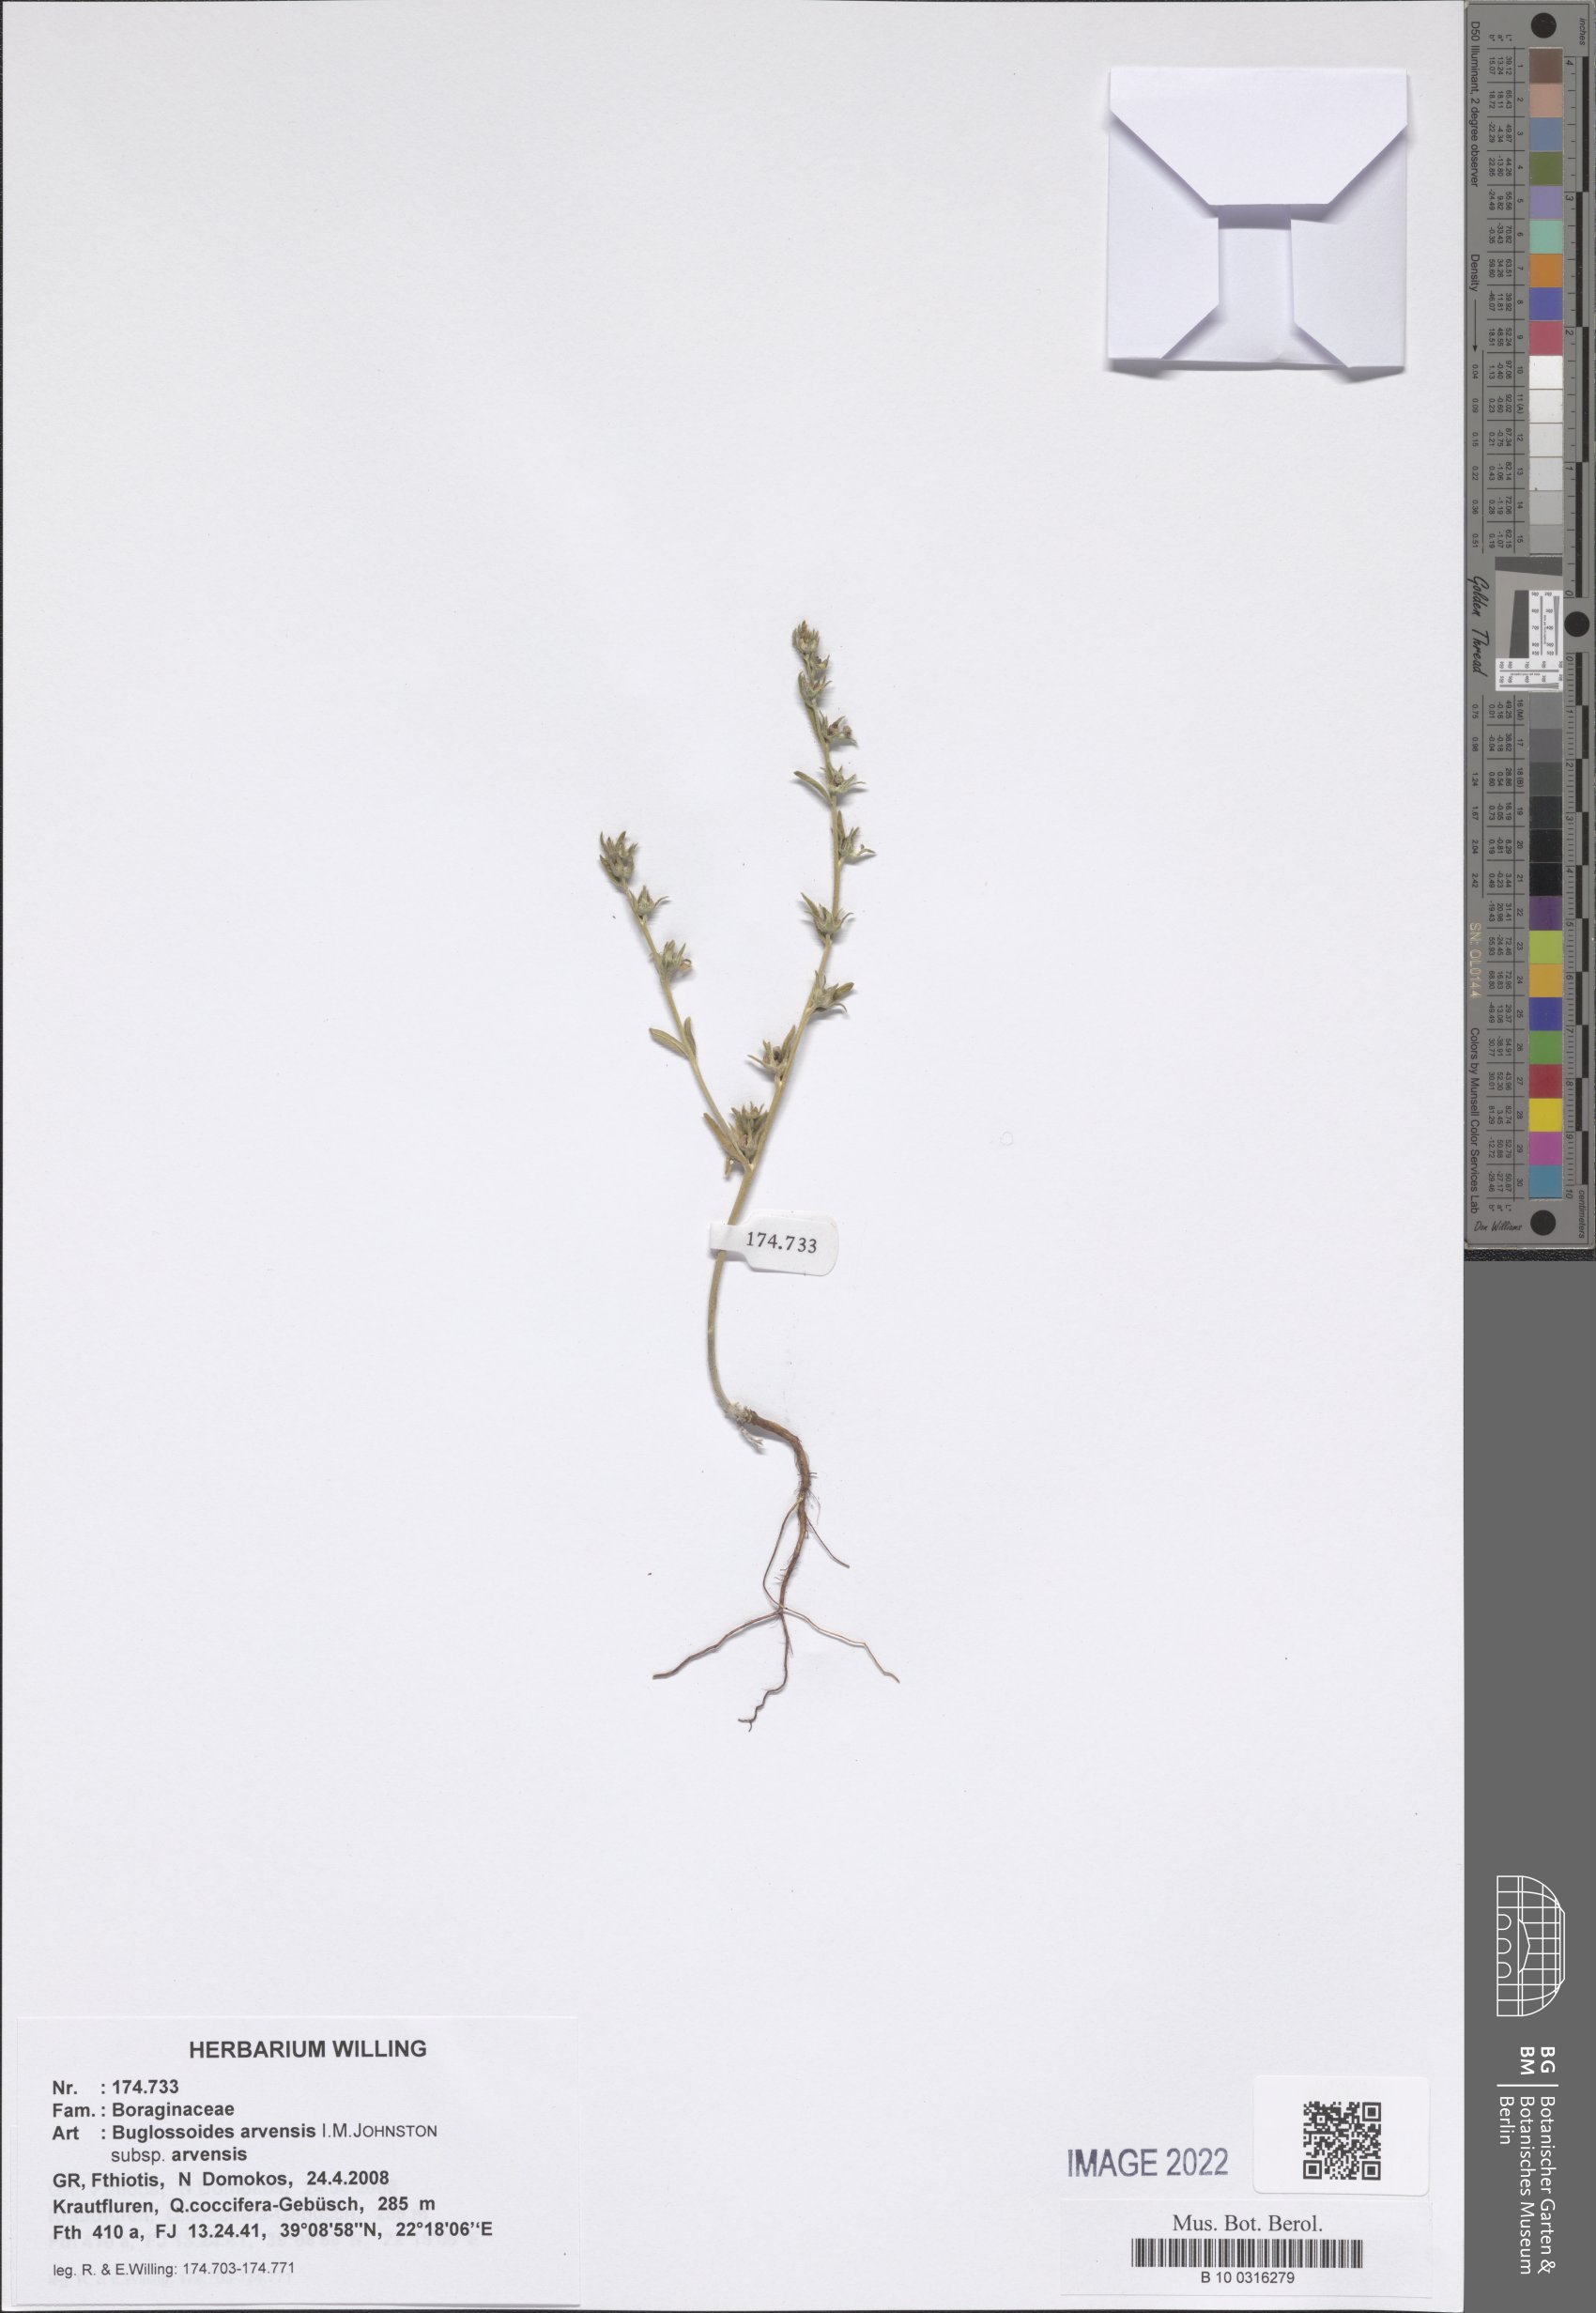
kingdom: Plantae
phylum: Tracheophyta
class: Magnoliopsida
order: Boraginales
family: Boraginaceae
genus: Buglossoides
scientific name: Buglossoides arvensis
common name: Corn gromwell
